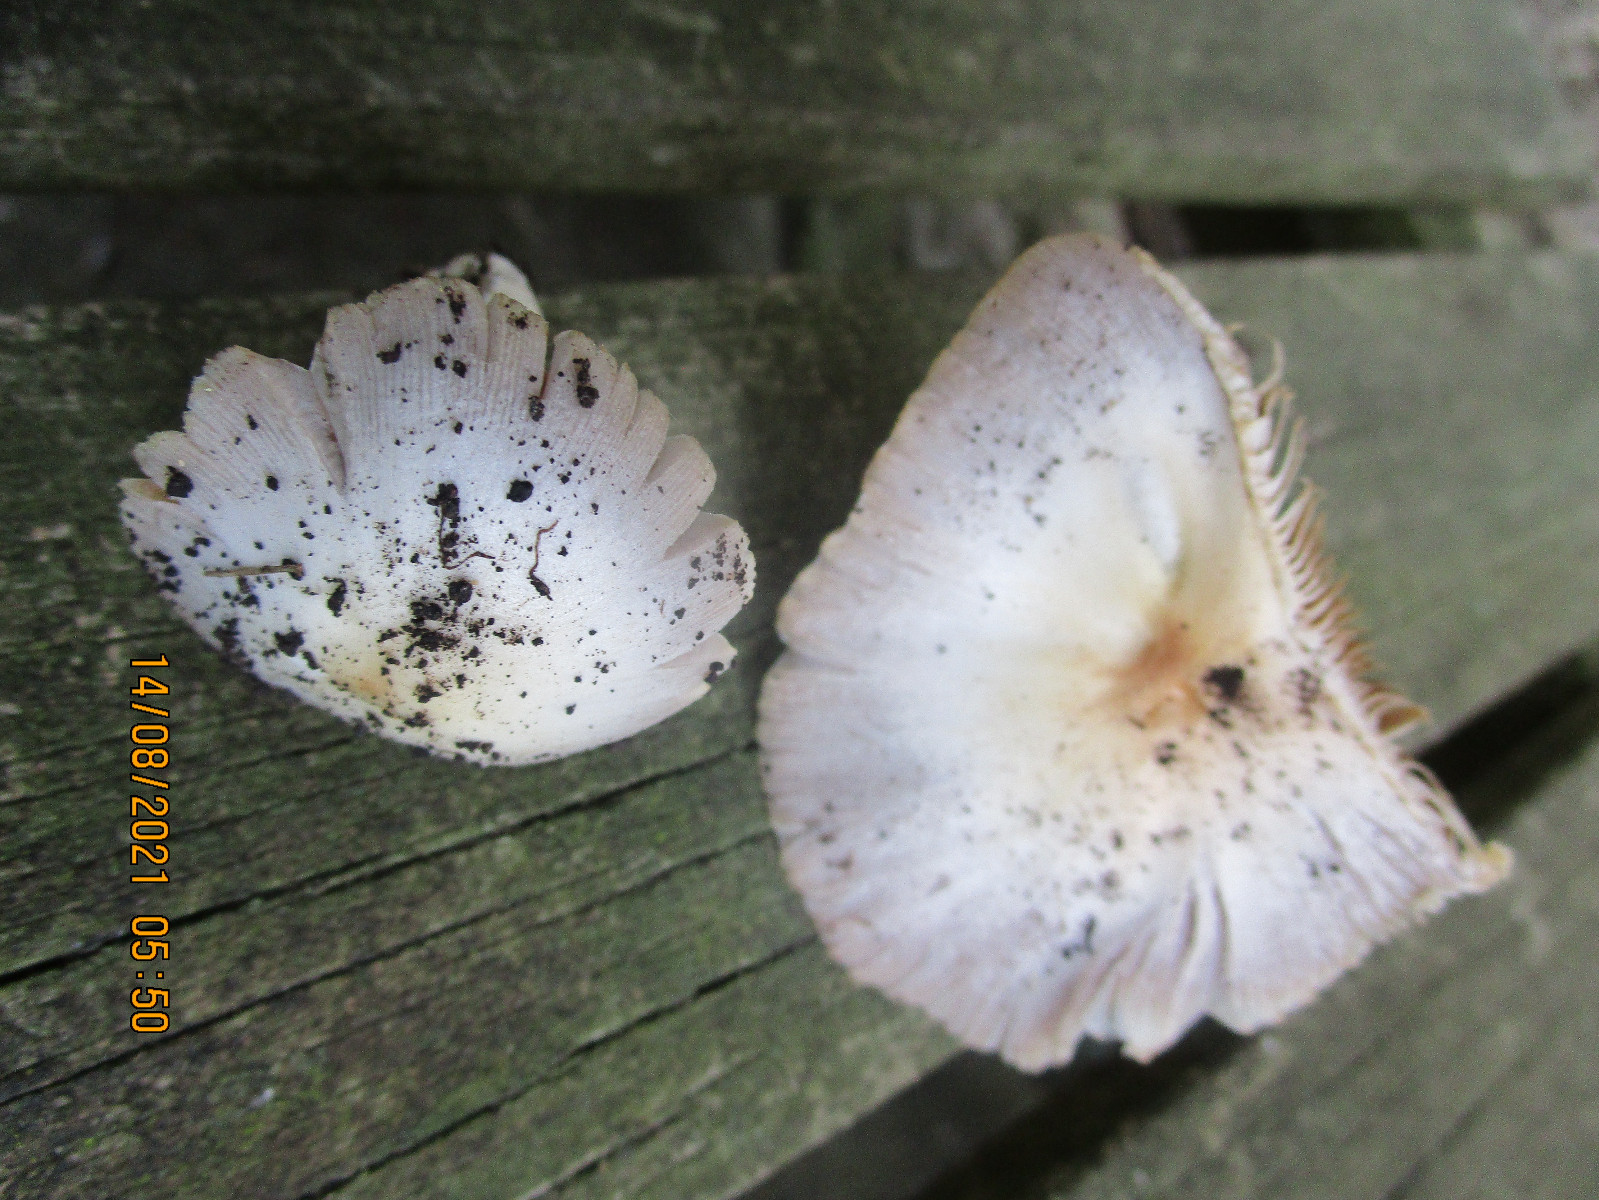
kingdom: Fungi
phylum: Basidiomycota
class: Agaricomycetes
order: Agaricales
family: Bolbitiaceae
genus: Bolbitius
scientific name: Bolbitius coprophilus
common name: rosa gulhat
